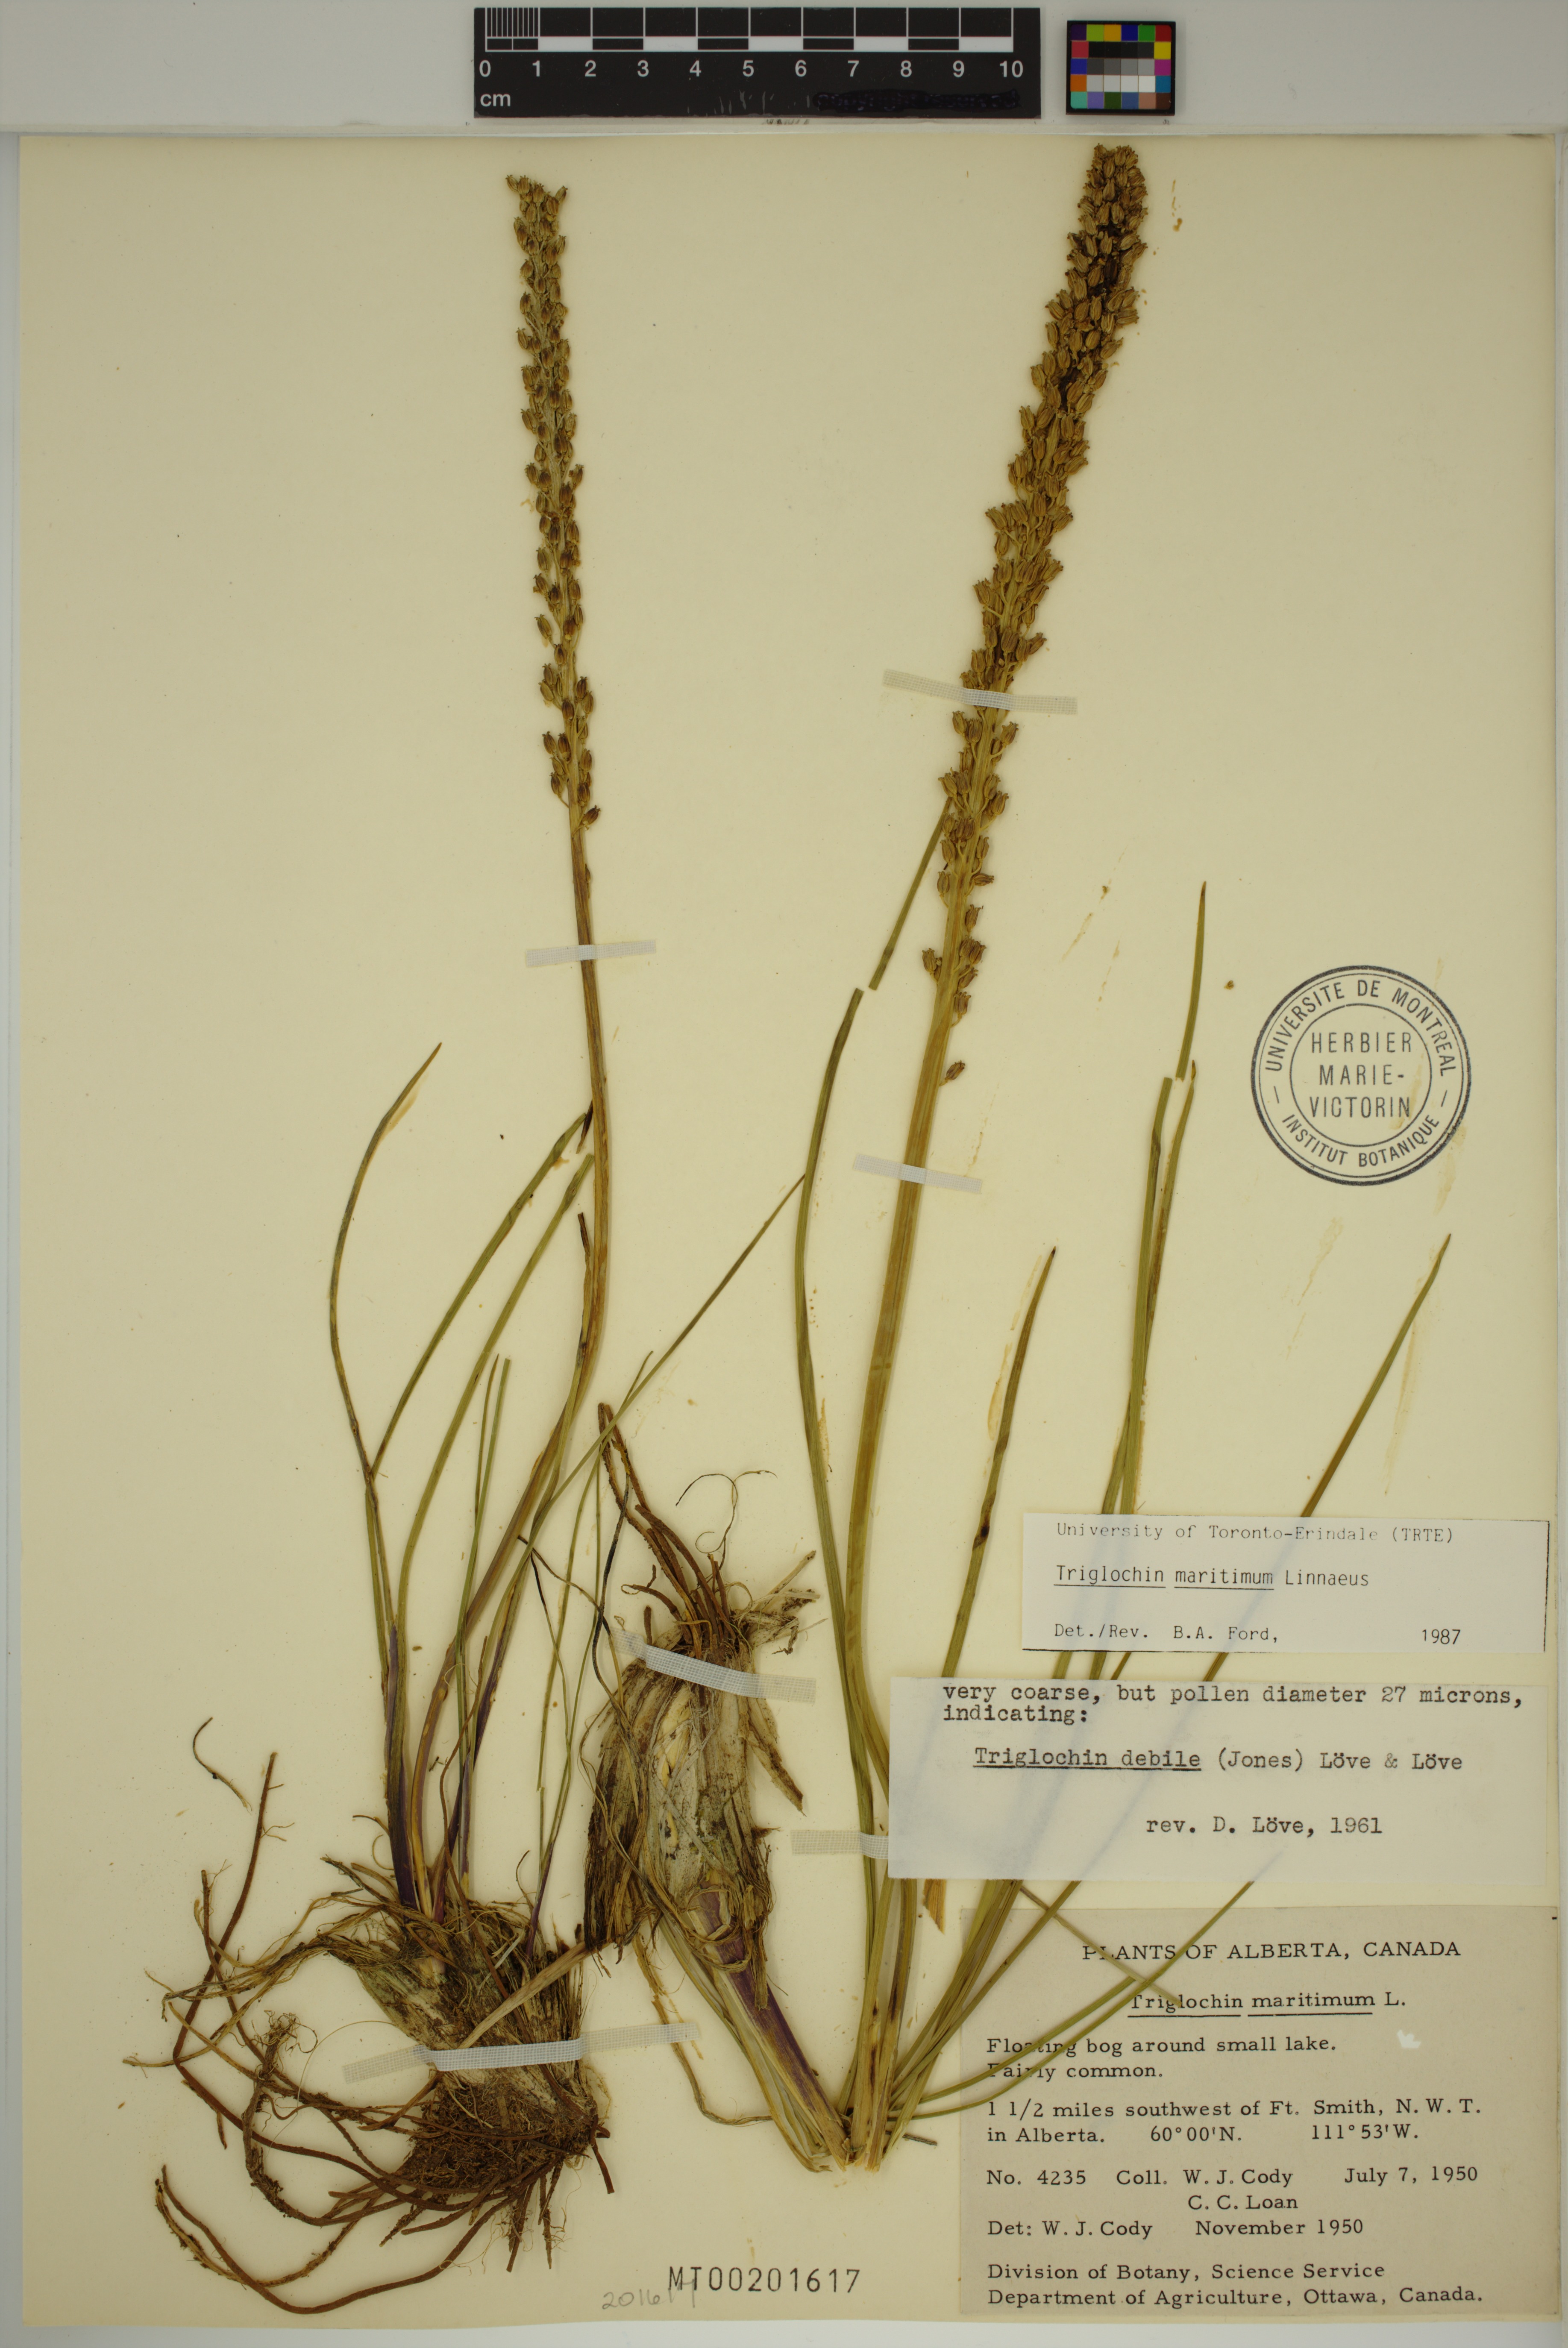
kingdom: Plantae
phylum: Tracheophyta
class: Liliopsida
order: Alismatales
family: Juncaginaceae
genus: Triglochin
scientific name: Triglochin maritima
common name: Sea arrowgrass
